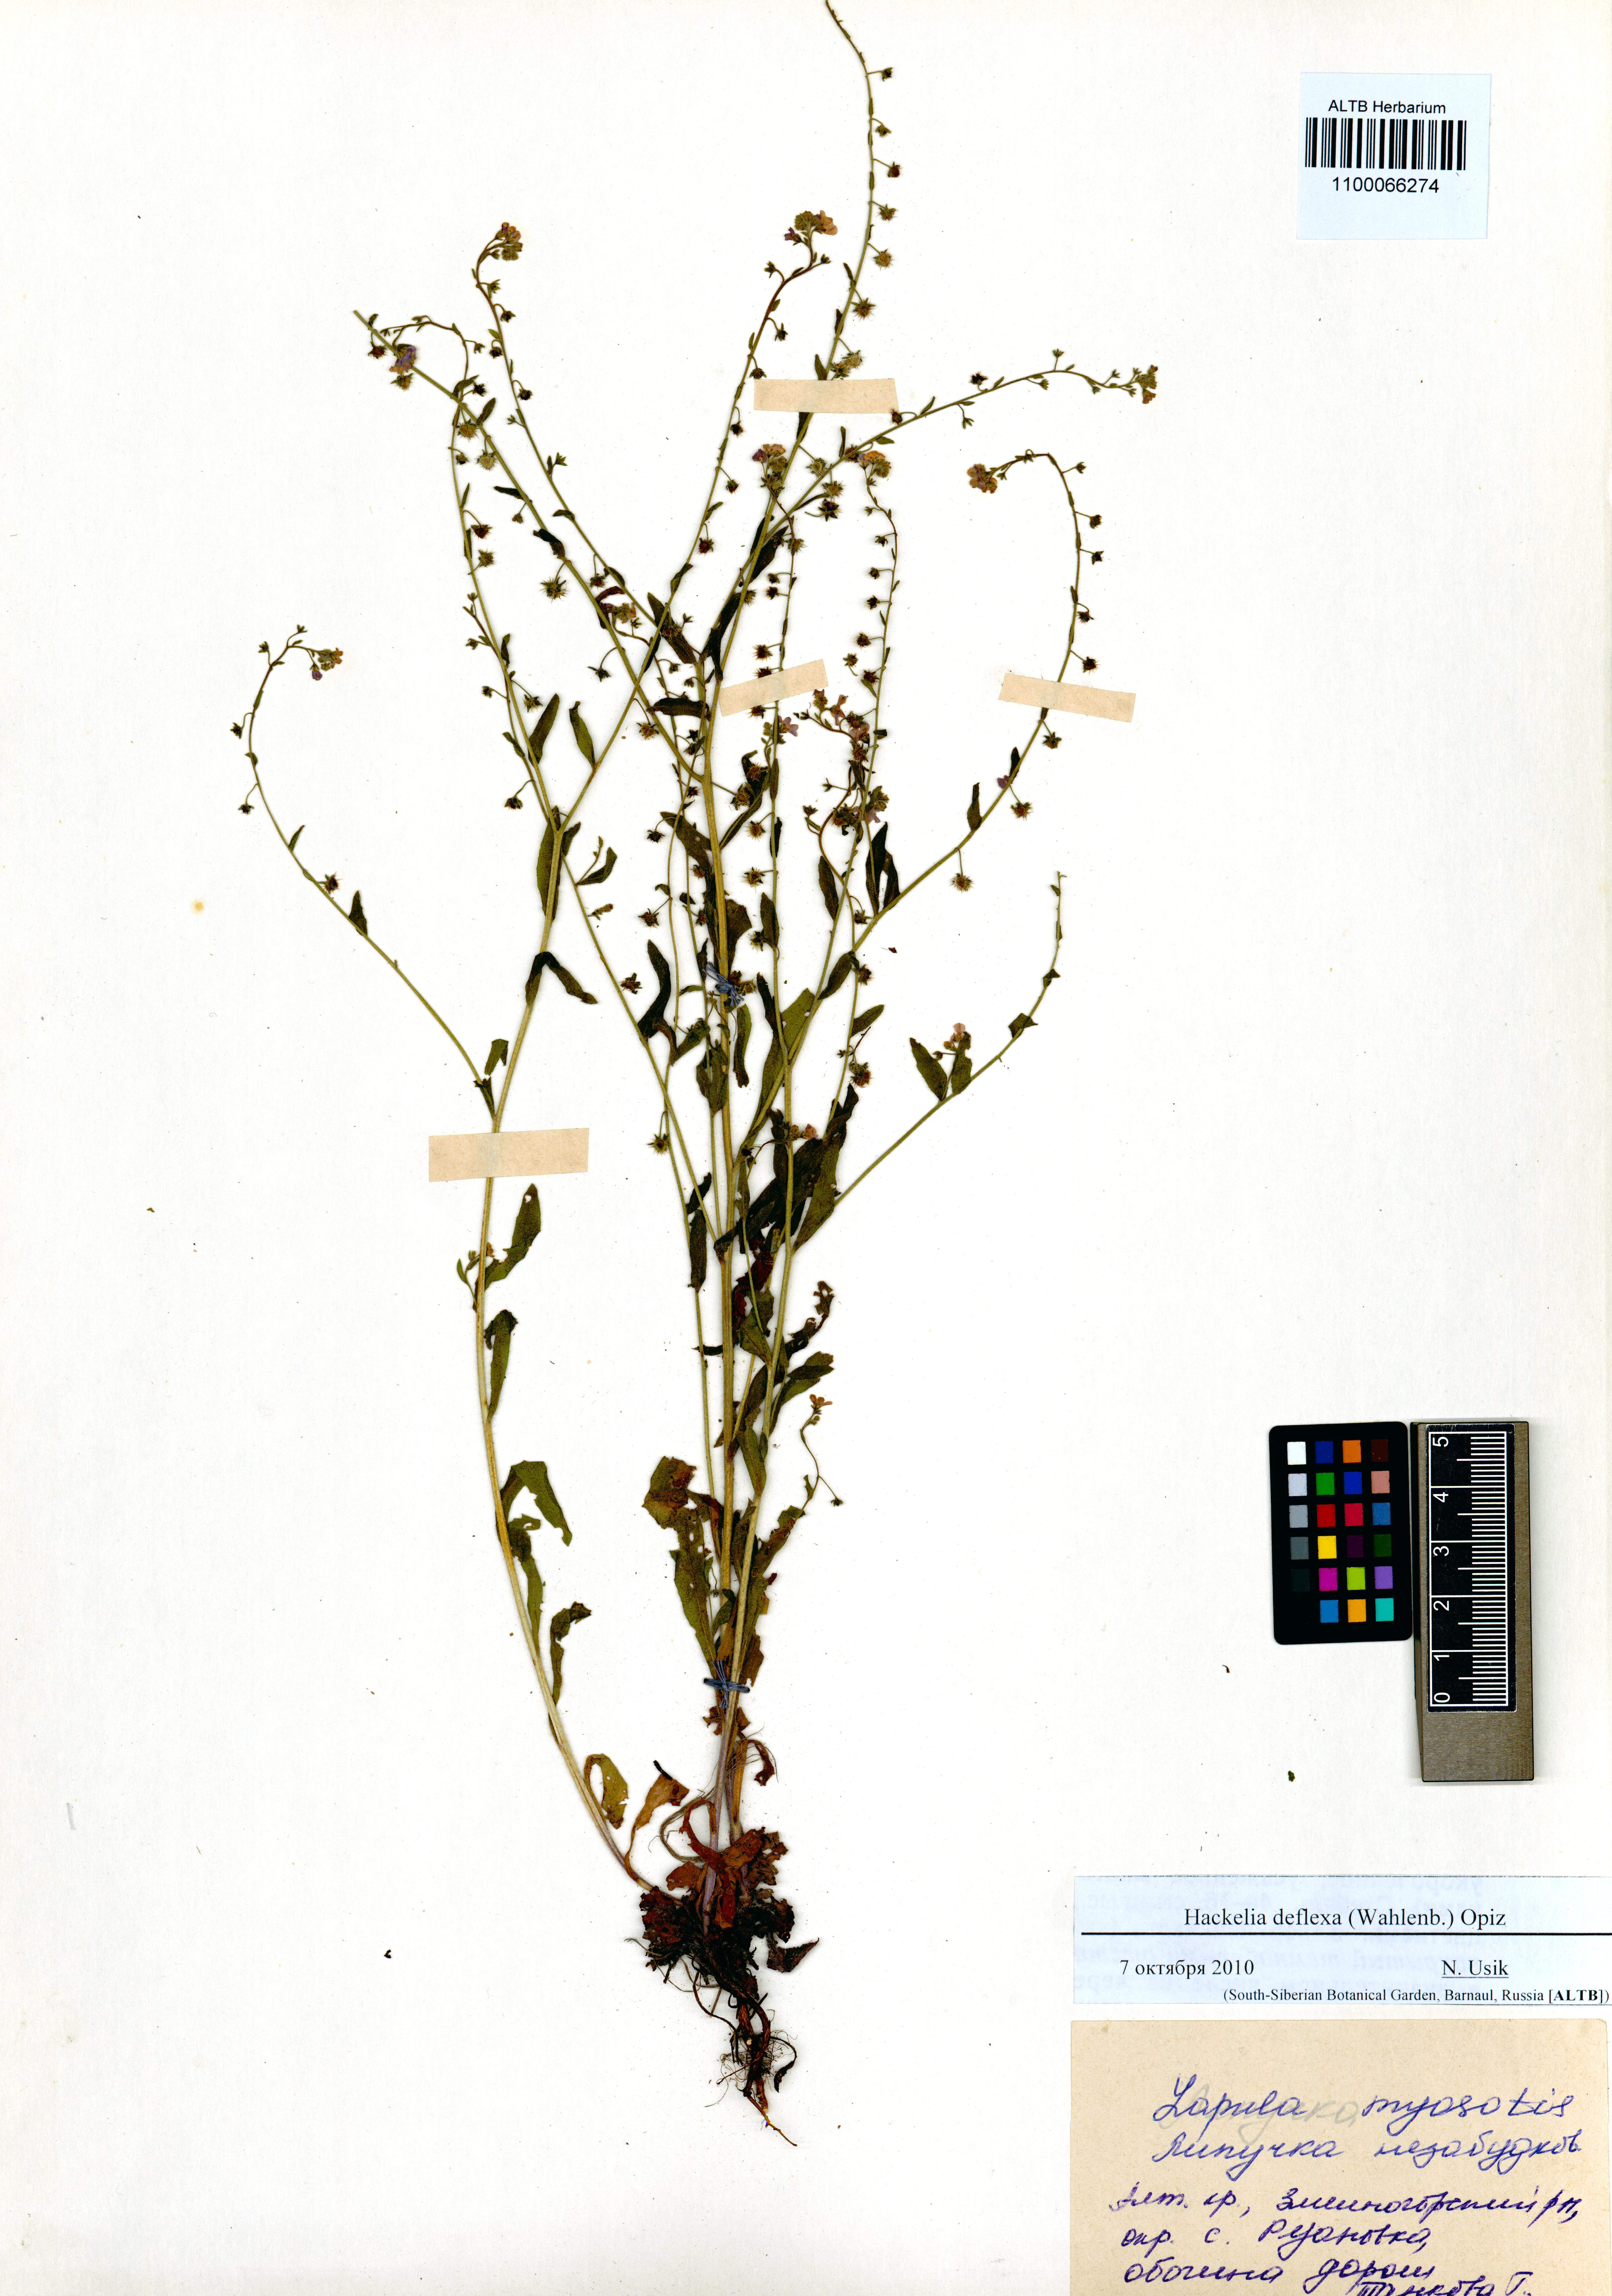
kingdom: Plantae
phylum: Tracheophyta
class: Magnoliopsida
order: Boraginales
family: Boraginaceae
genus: Hackelia
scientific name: Hackelia deflexa
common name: Nodding stickseed
